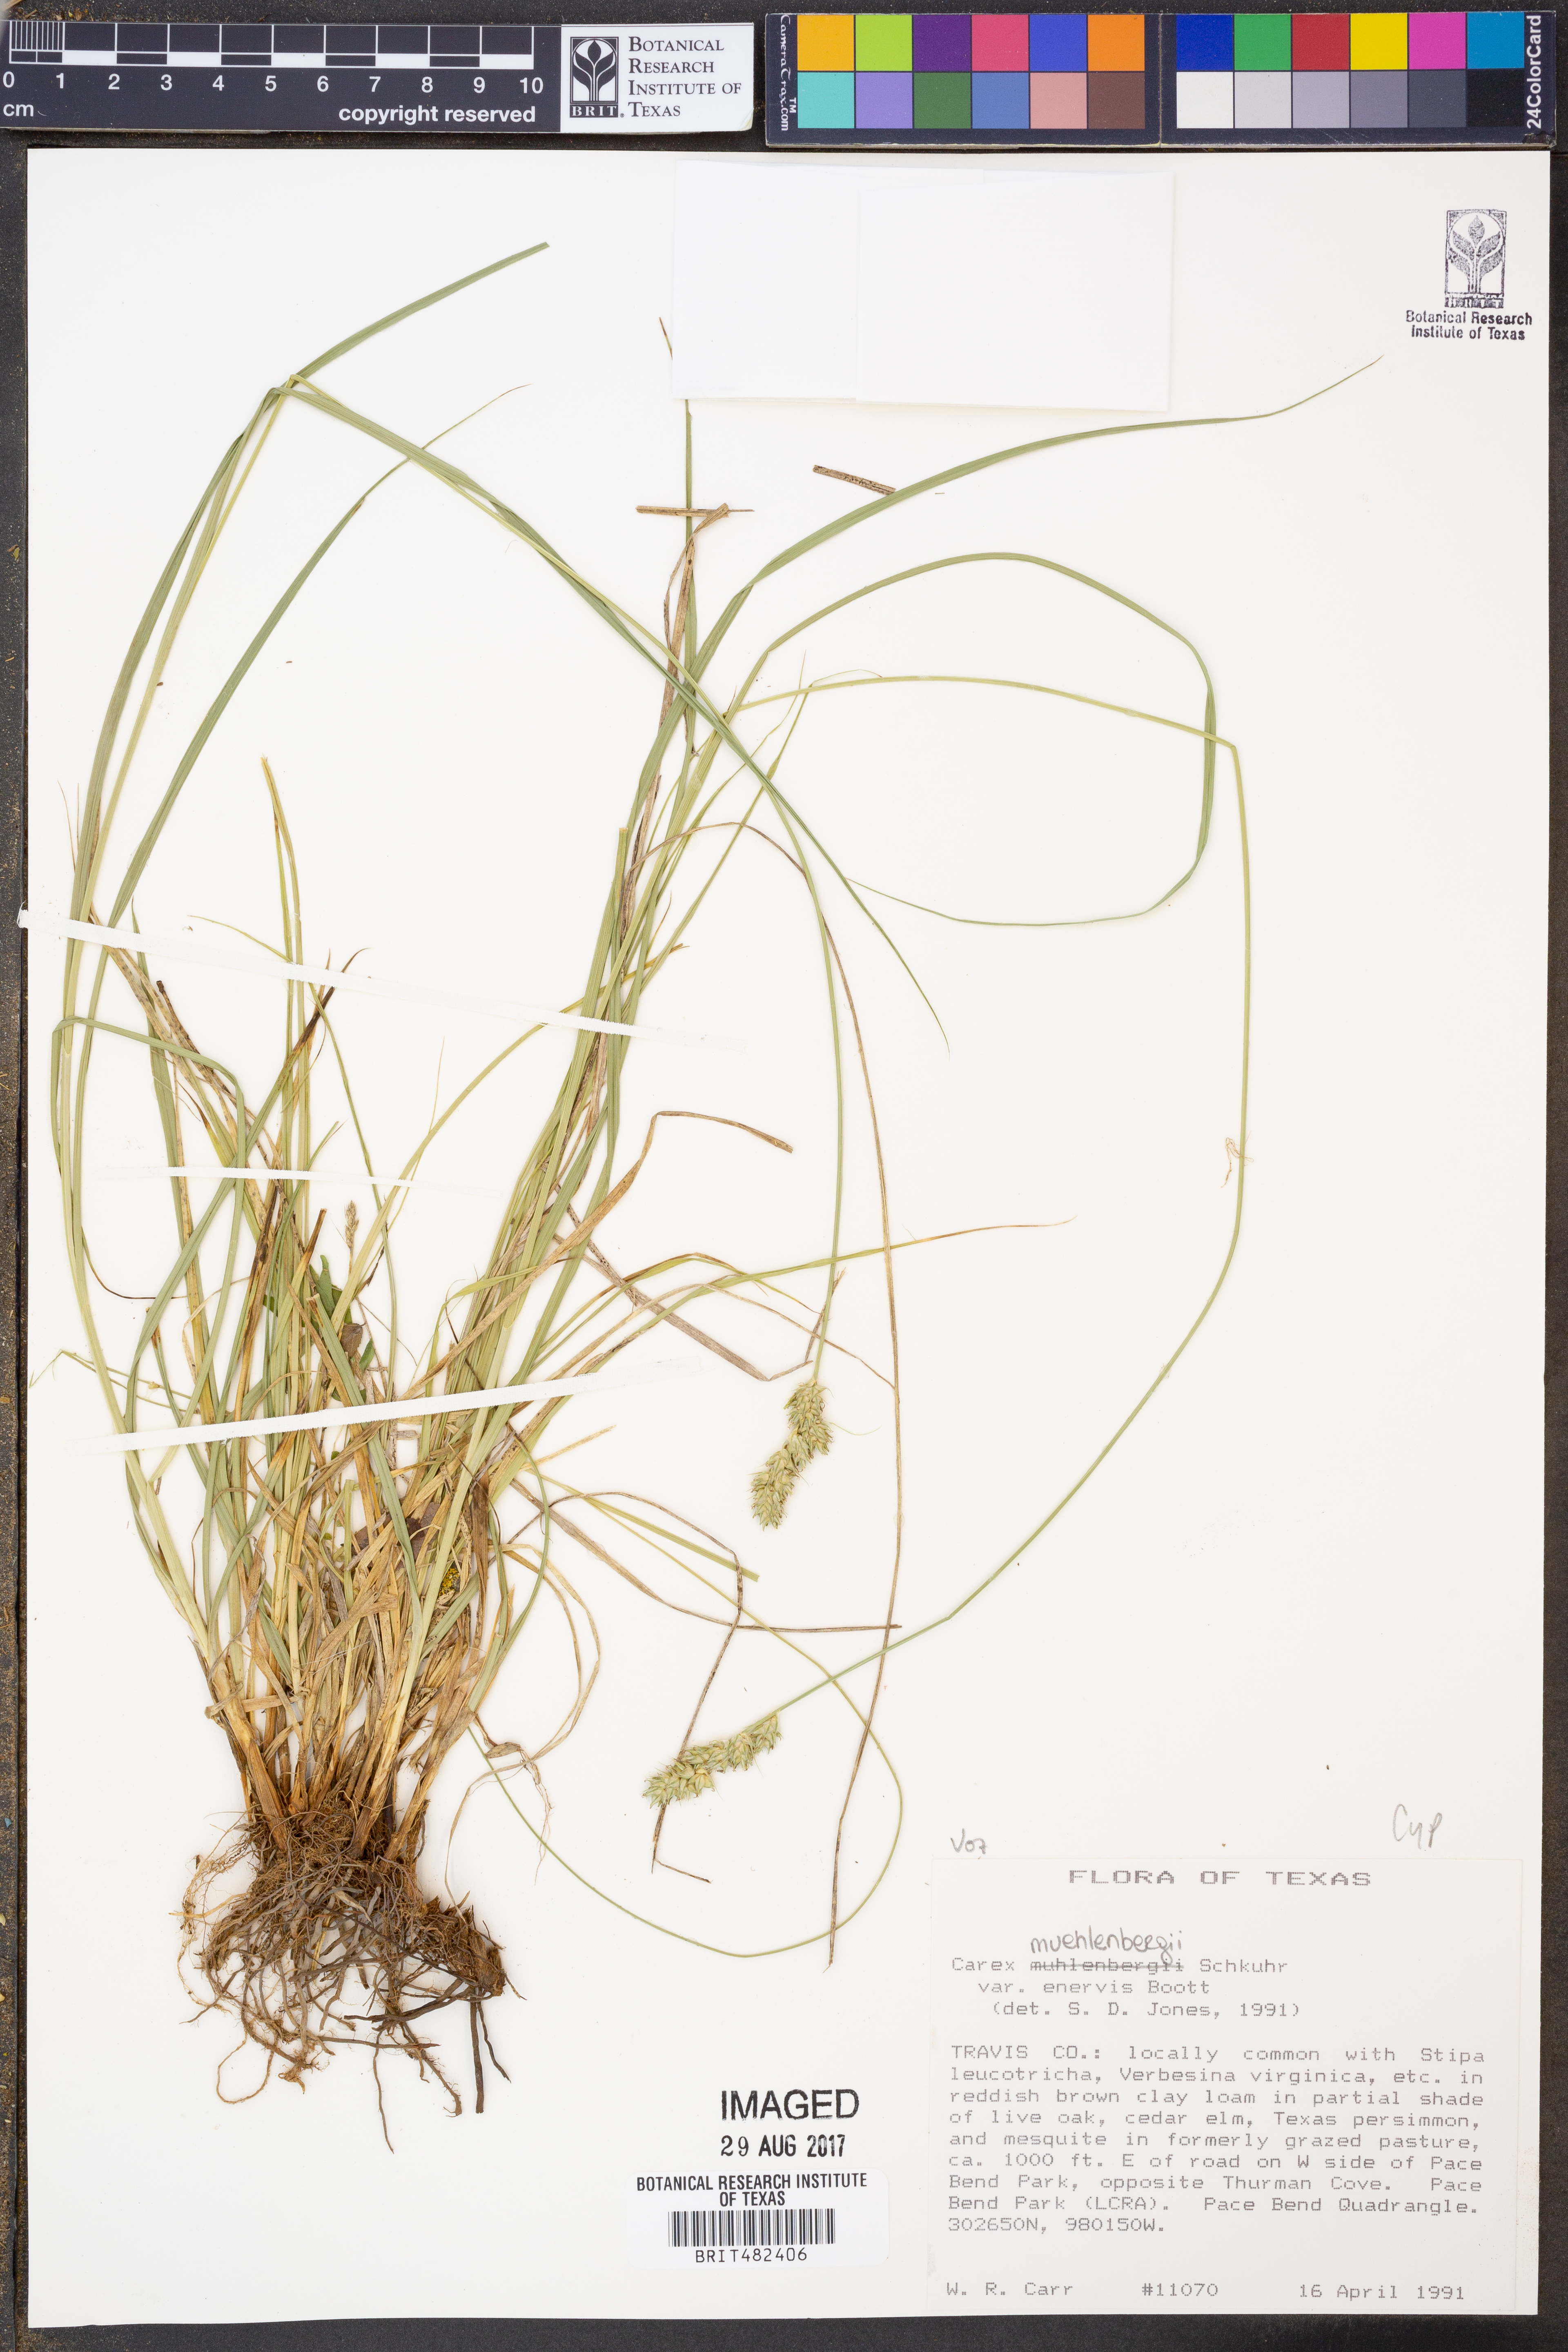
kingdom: Plantae
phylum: Tracheophyta
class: Liliopsida
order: Poales
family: Cyperaceae
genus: Carex
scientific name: Carex muehlenbergii
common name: Muhlenberg's bracted sedge
